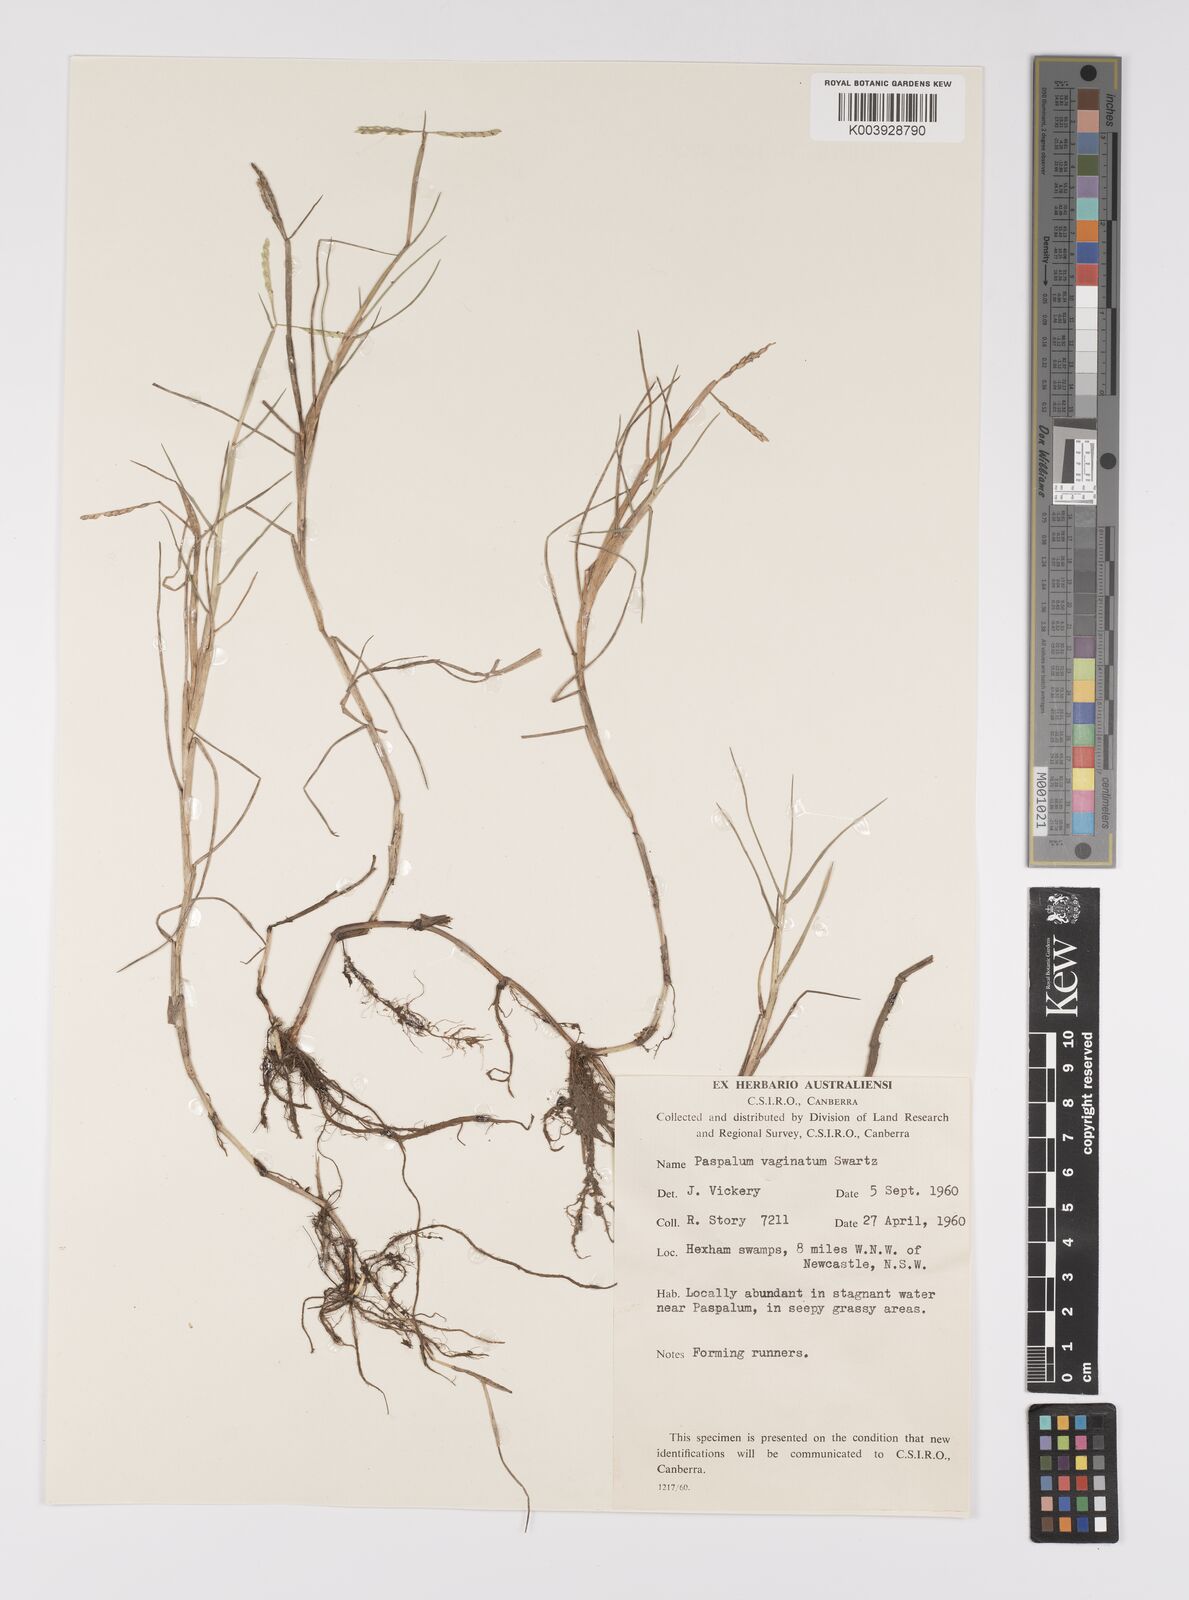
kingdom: Plantae
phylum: Tracheophyta
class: Liliopsida
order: Poales
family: Poaceae
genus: Paspalum
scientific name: Paspalum vaginatum
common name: Seashore paspalum
